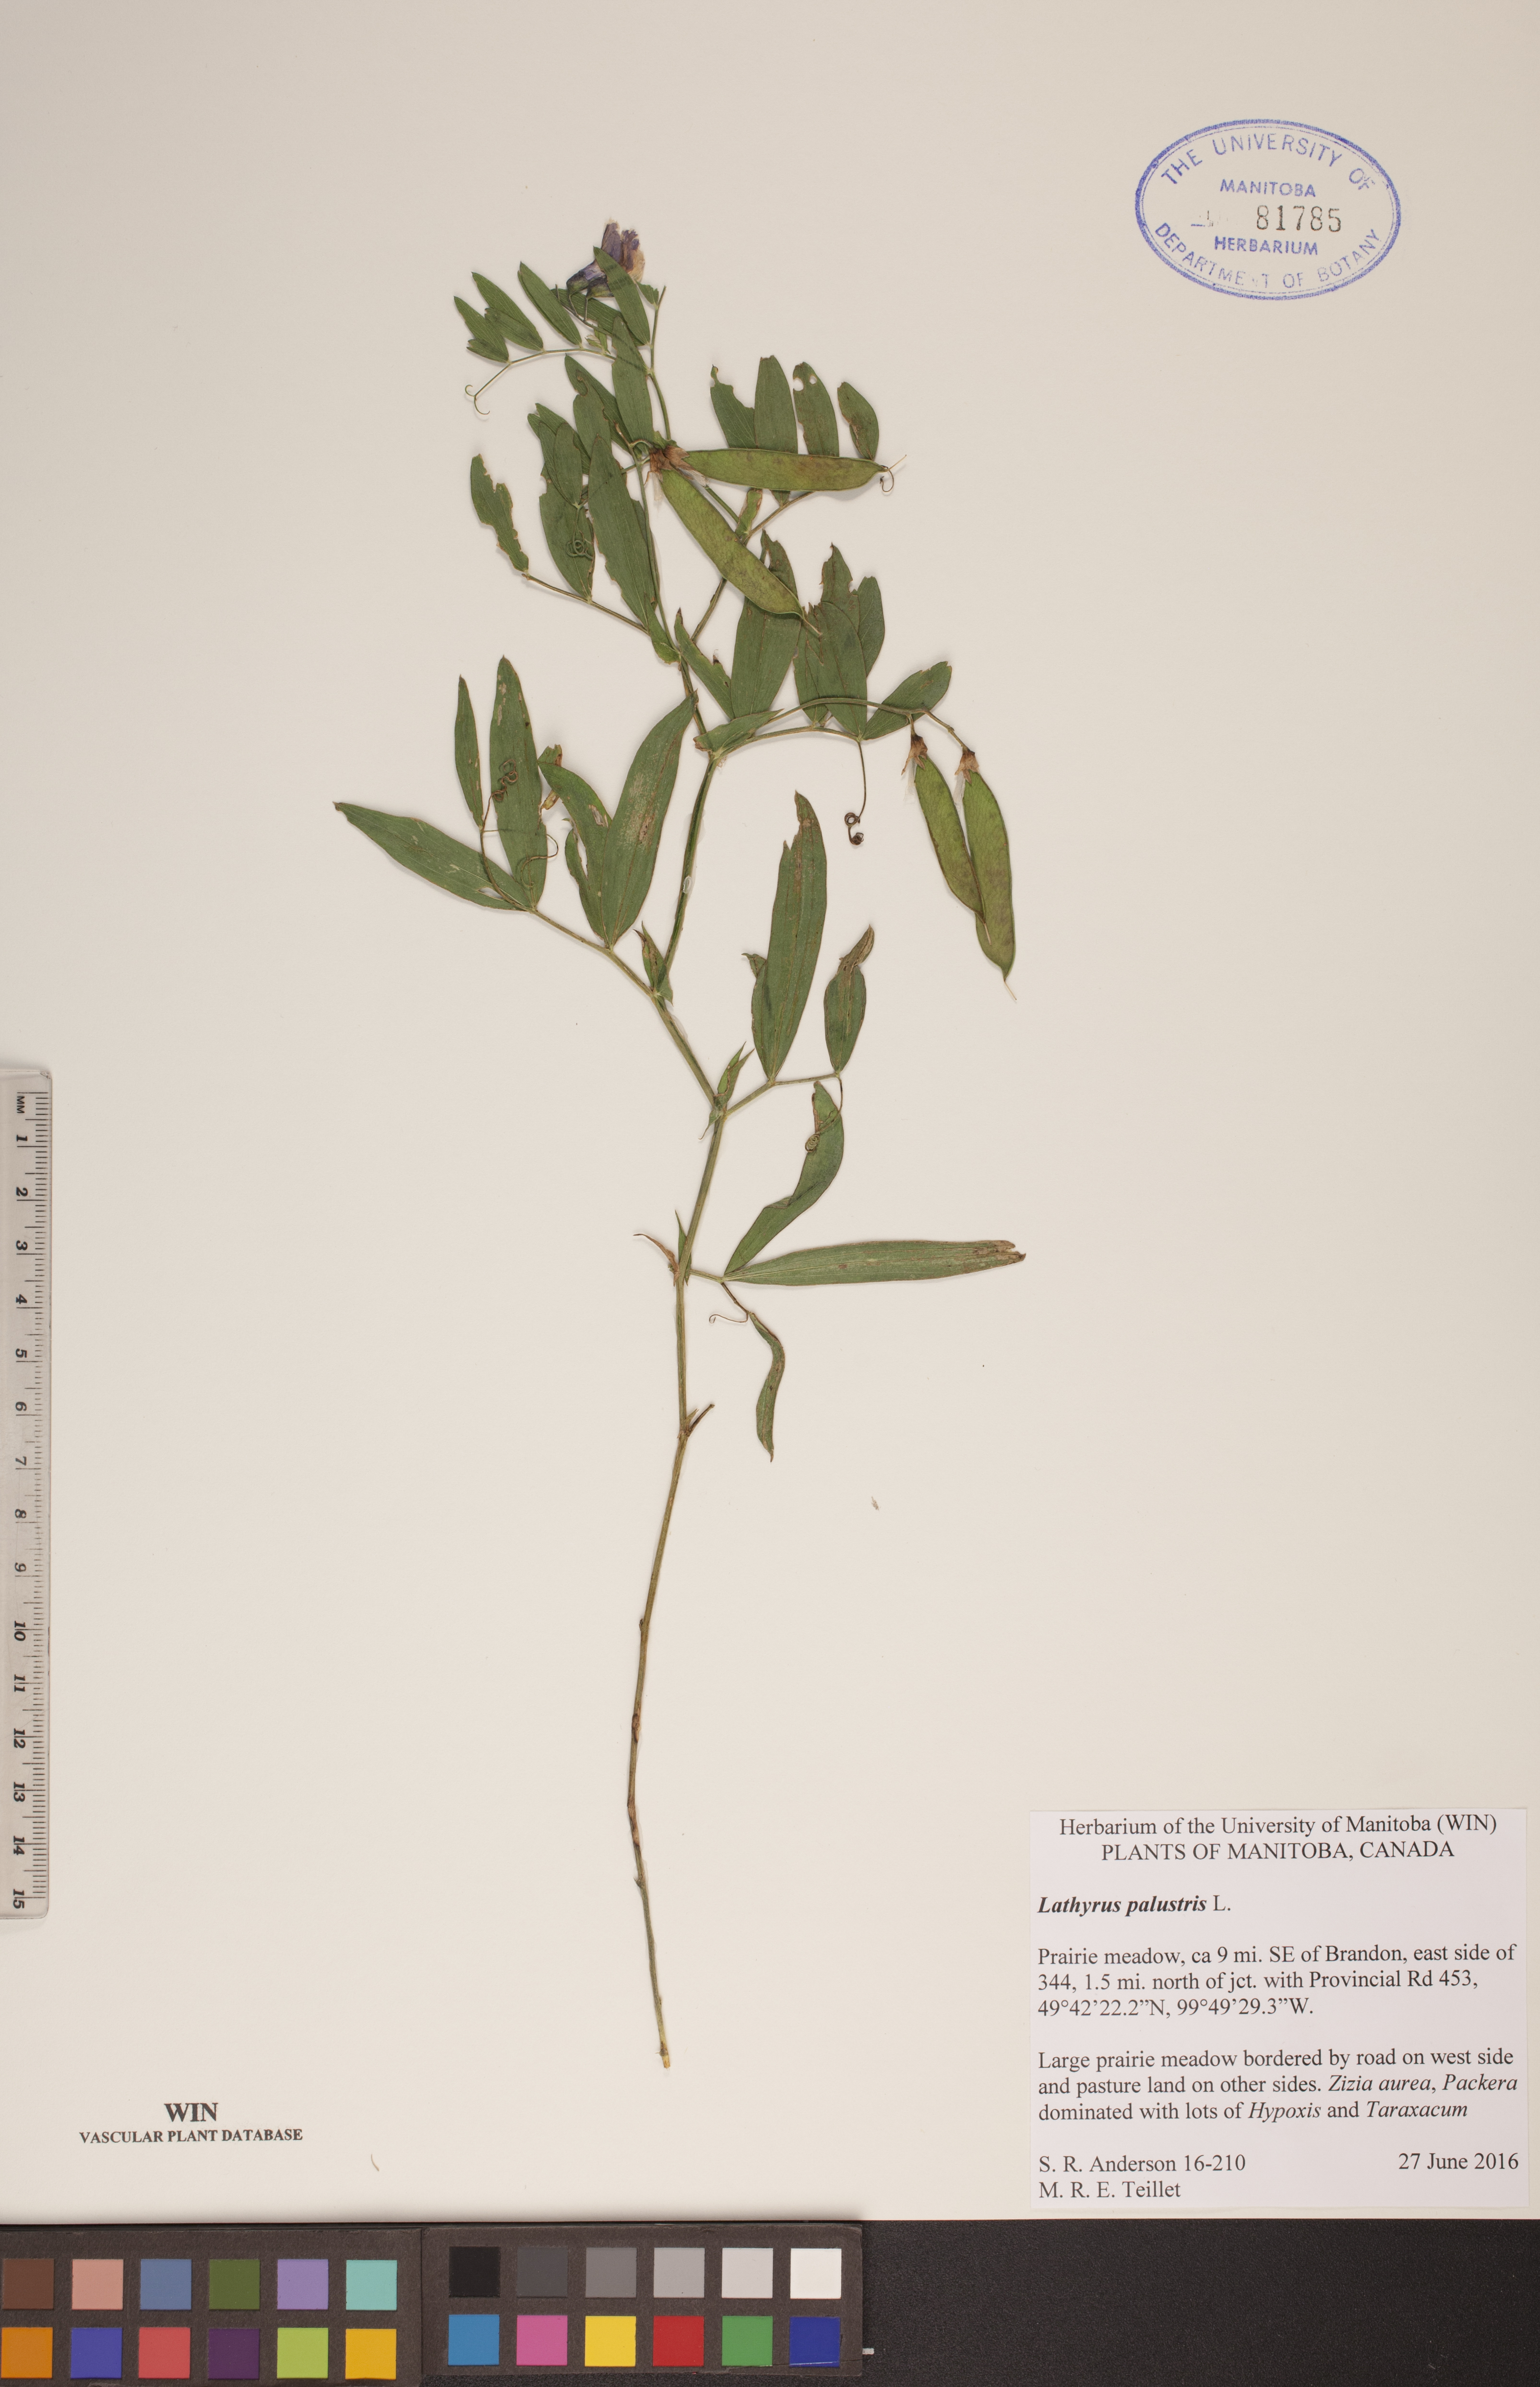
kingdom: Plantae
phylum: Tracheophyta
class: Magnoliopsida
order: Fabales
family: Fabaceae
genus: Lathyrus
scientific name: Lathyrus palustris
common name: Marsh pea
